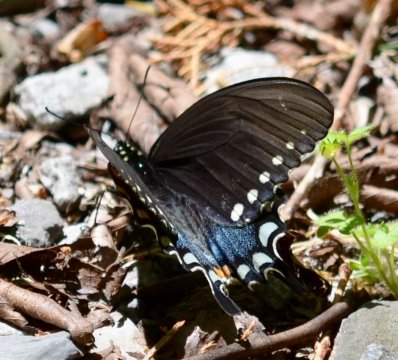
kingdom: Animalia
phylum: Arthropoda
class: Insecta
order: Lepidoptera
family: Papilionidae
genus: Pterourus
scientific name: Pterourus troilus
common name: Spicebush Swallowtail
